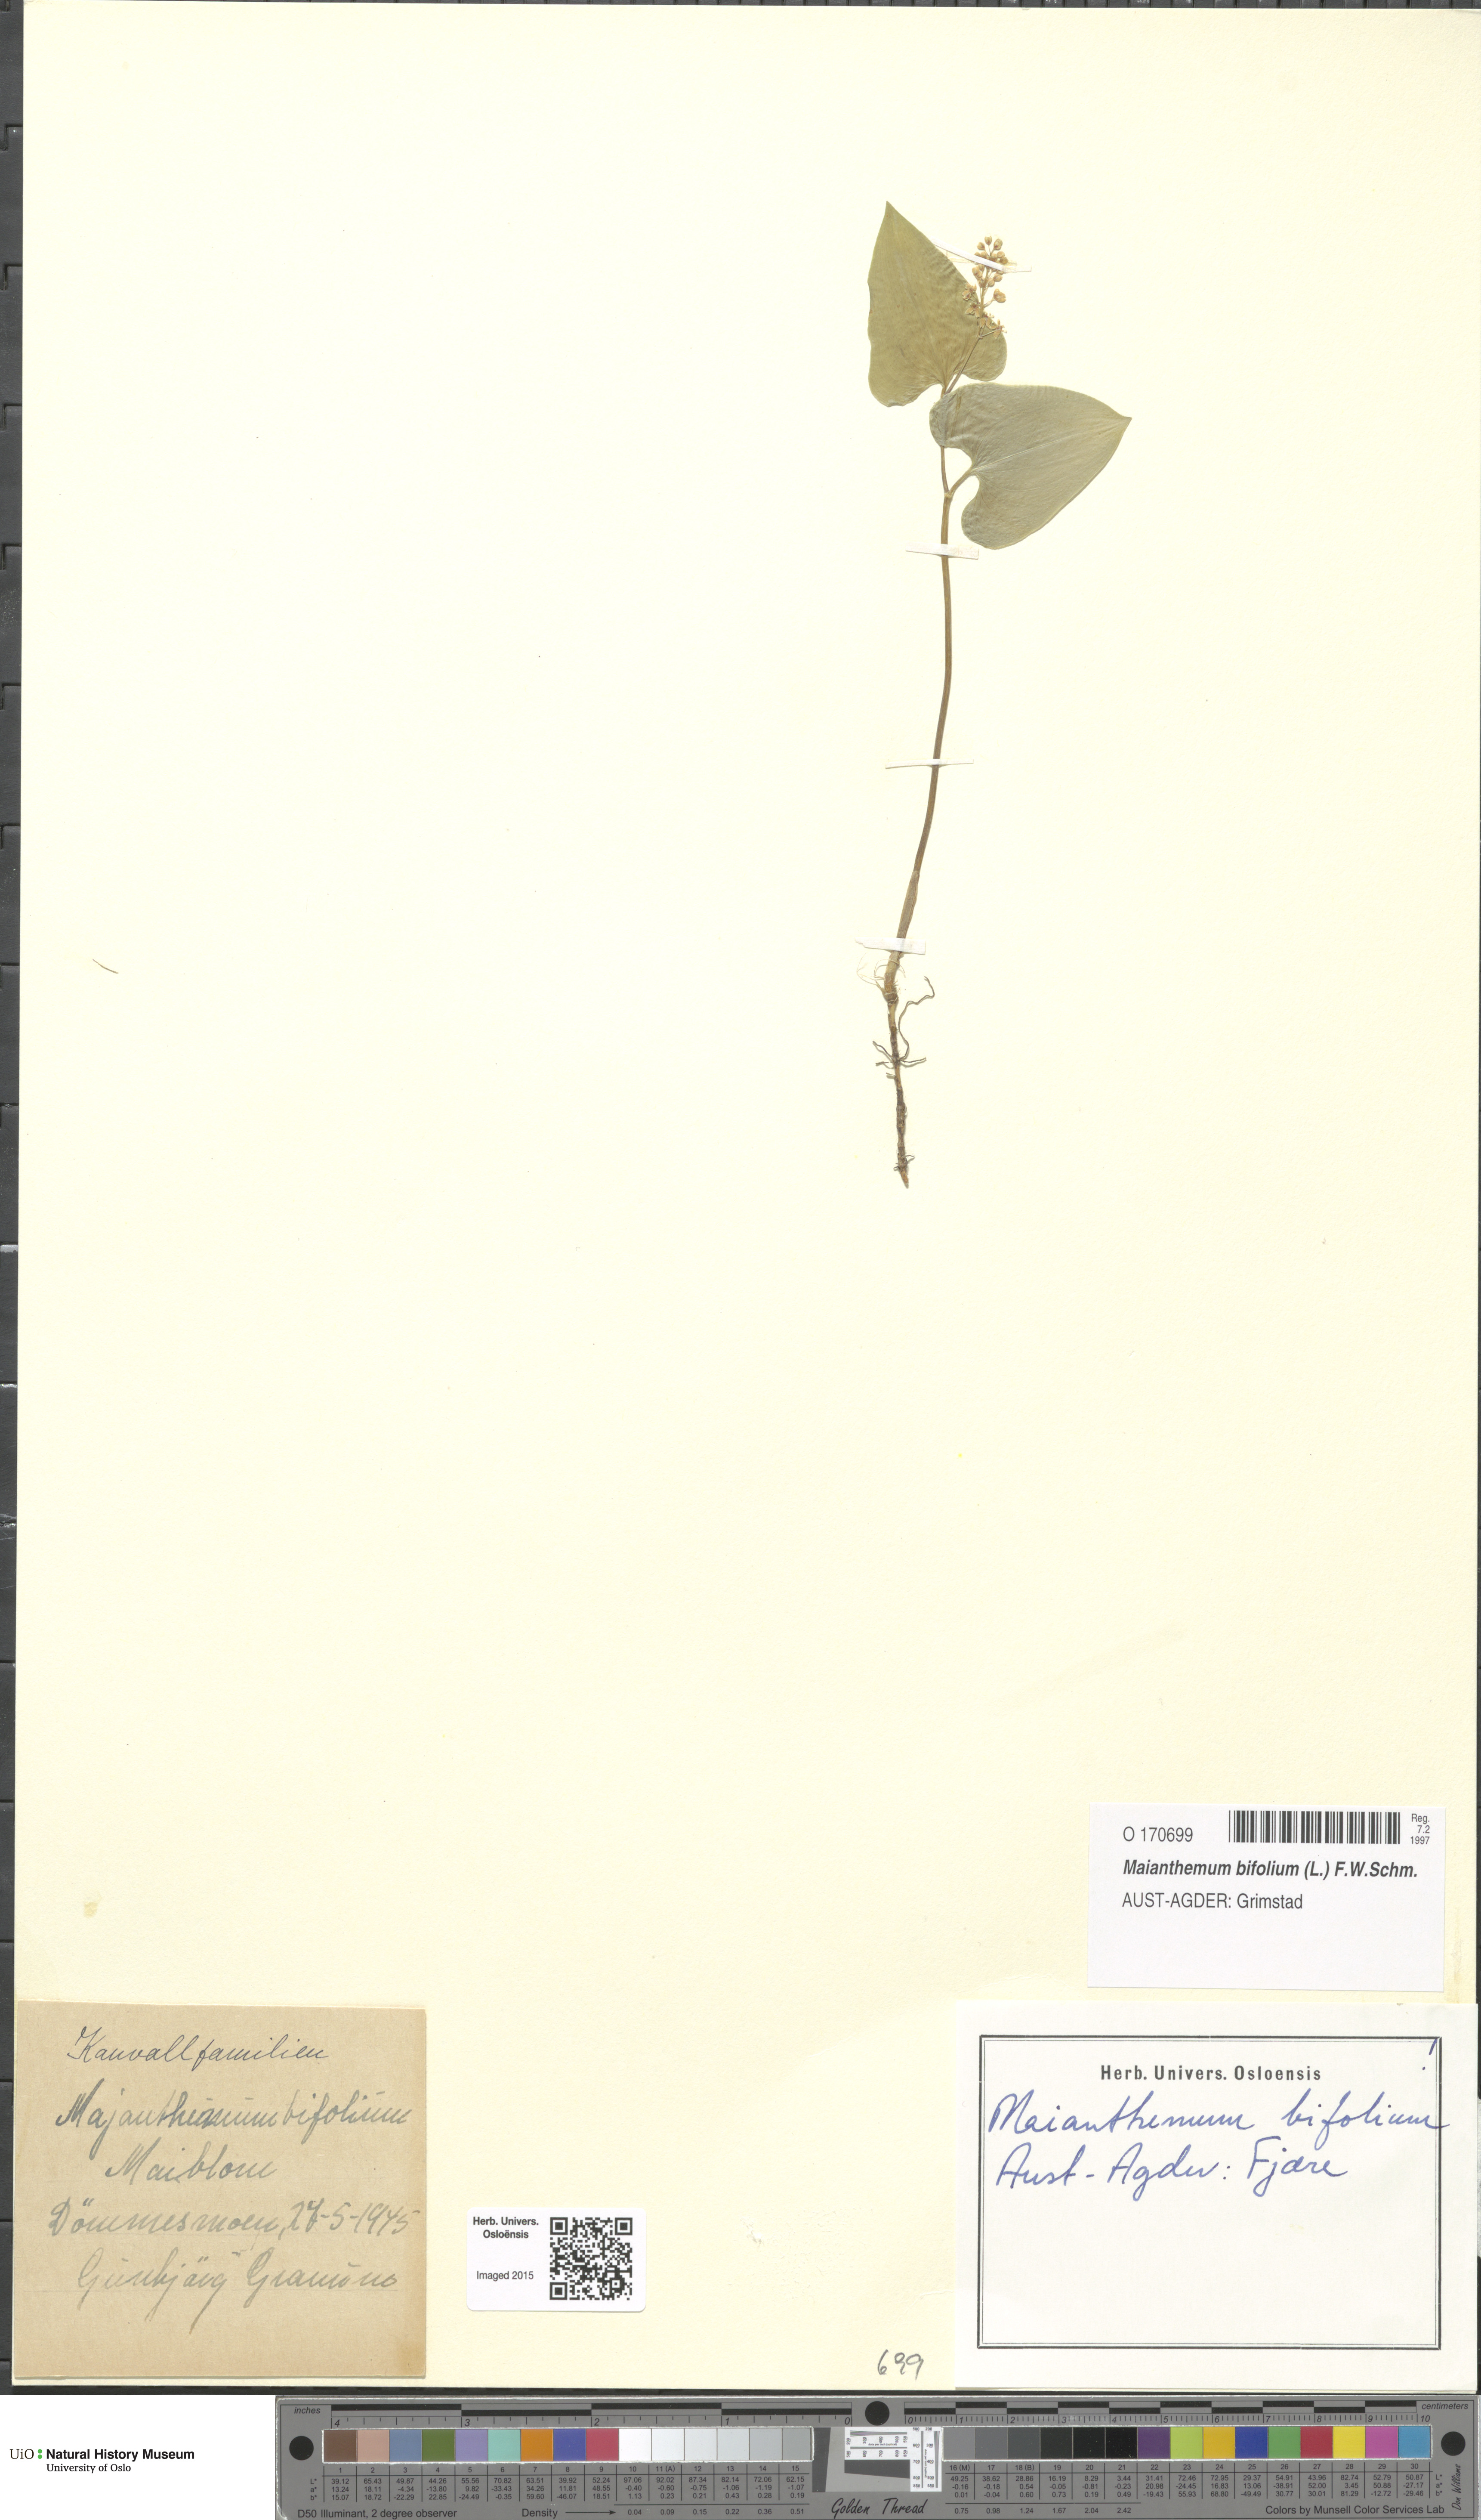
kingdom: Plantae
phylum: Tracheophyta
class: Liliopsida
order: Asparagales
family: Asparagaceae
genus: Maianthemum
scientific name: Maianthemum bifolium
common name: May lily
